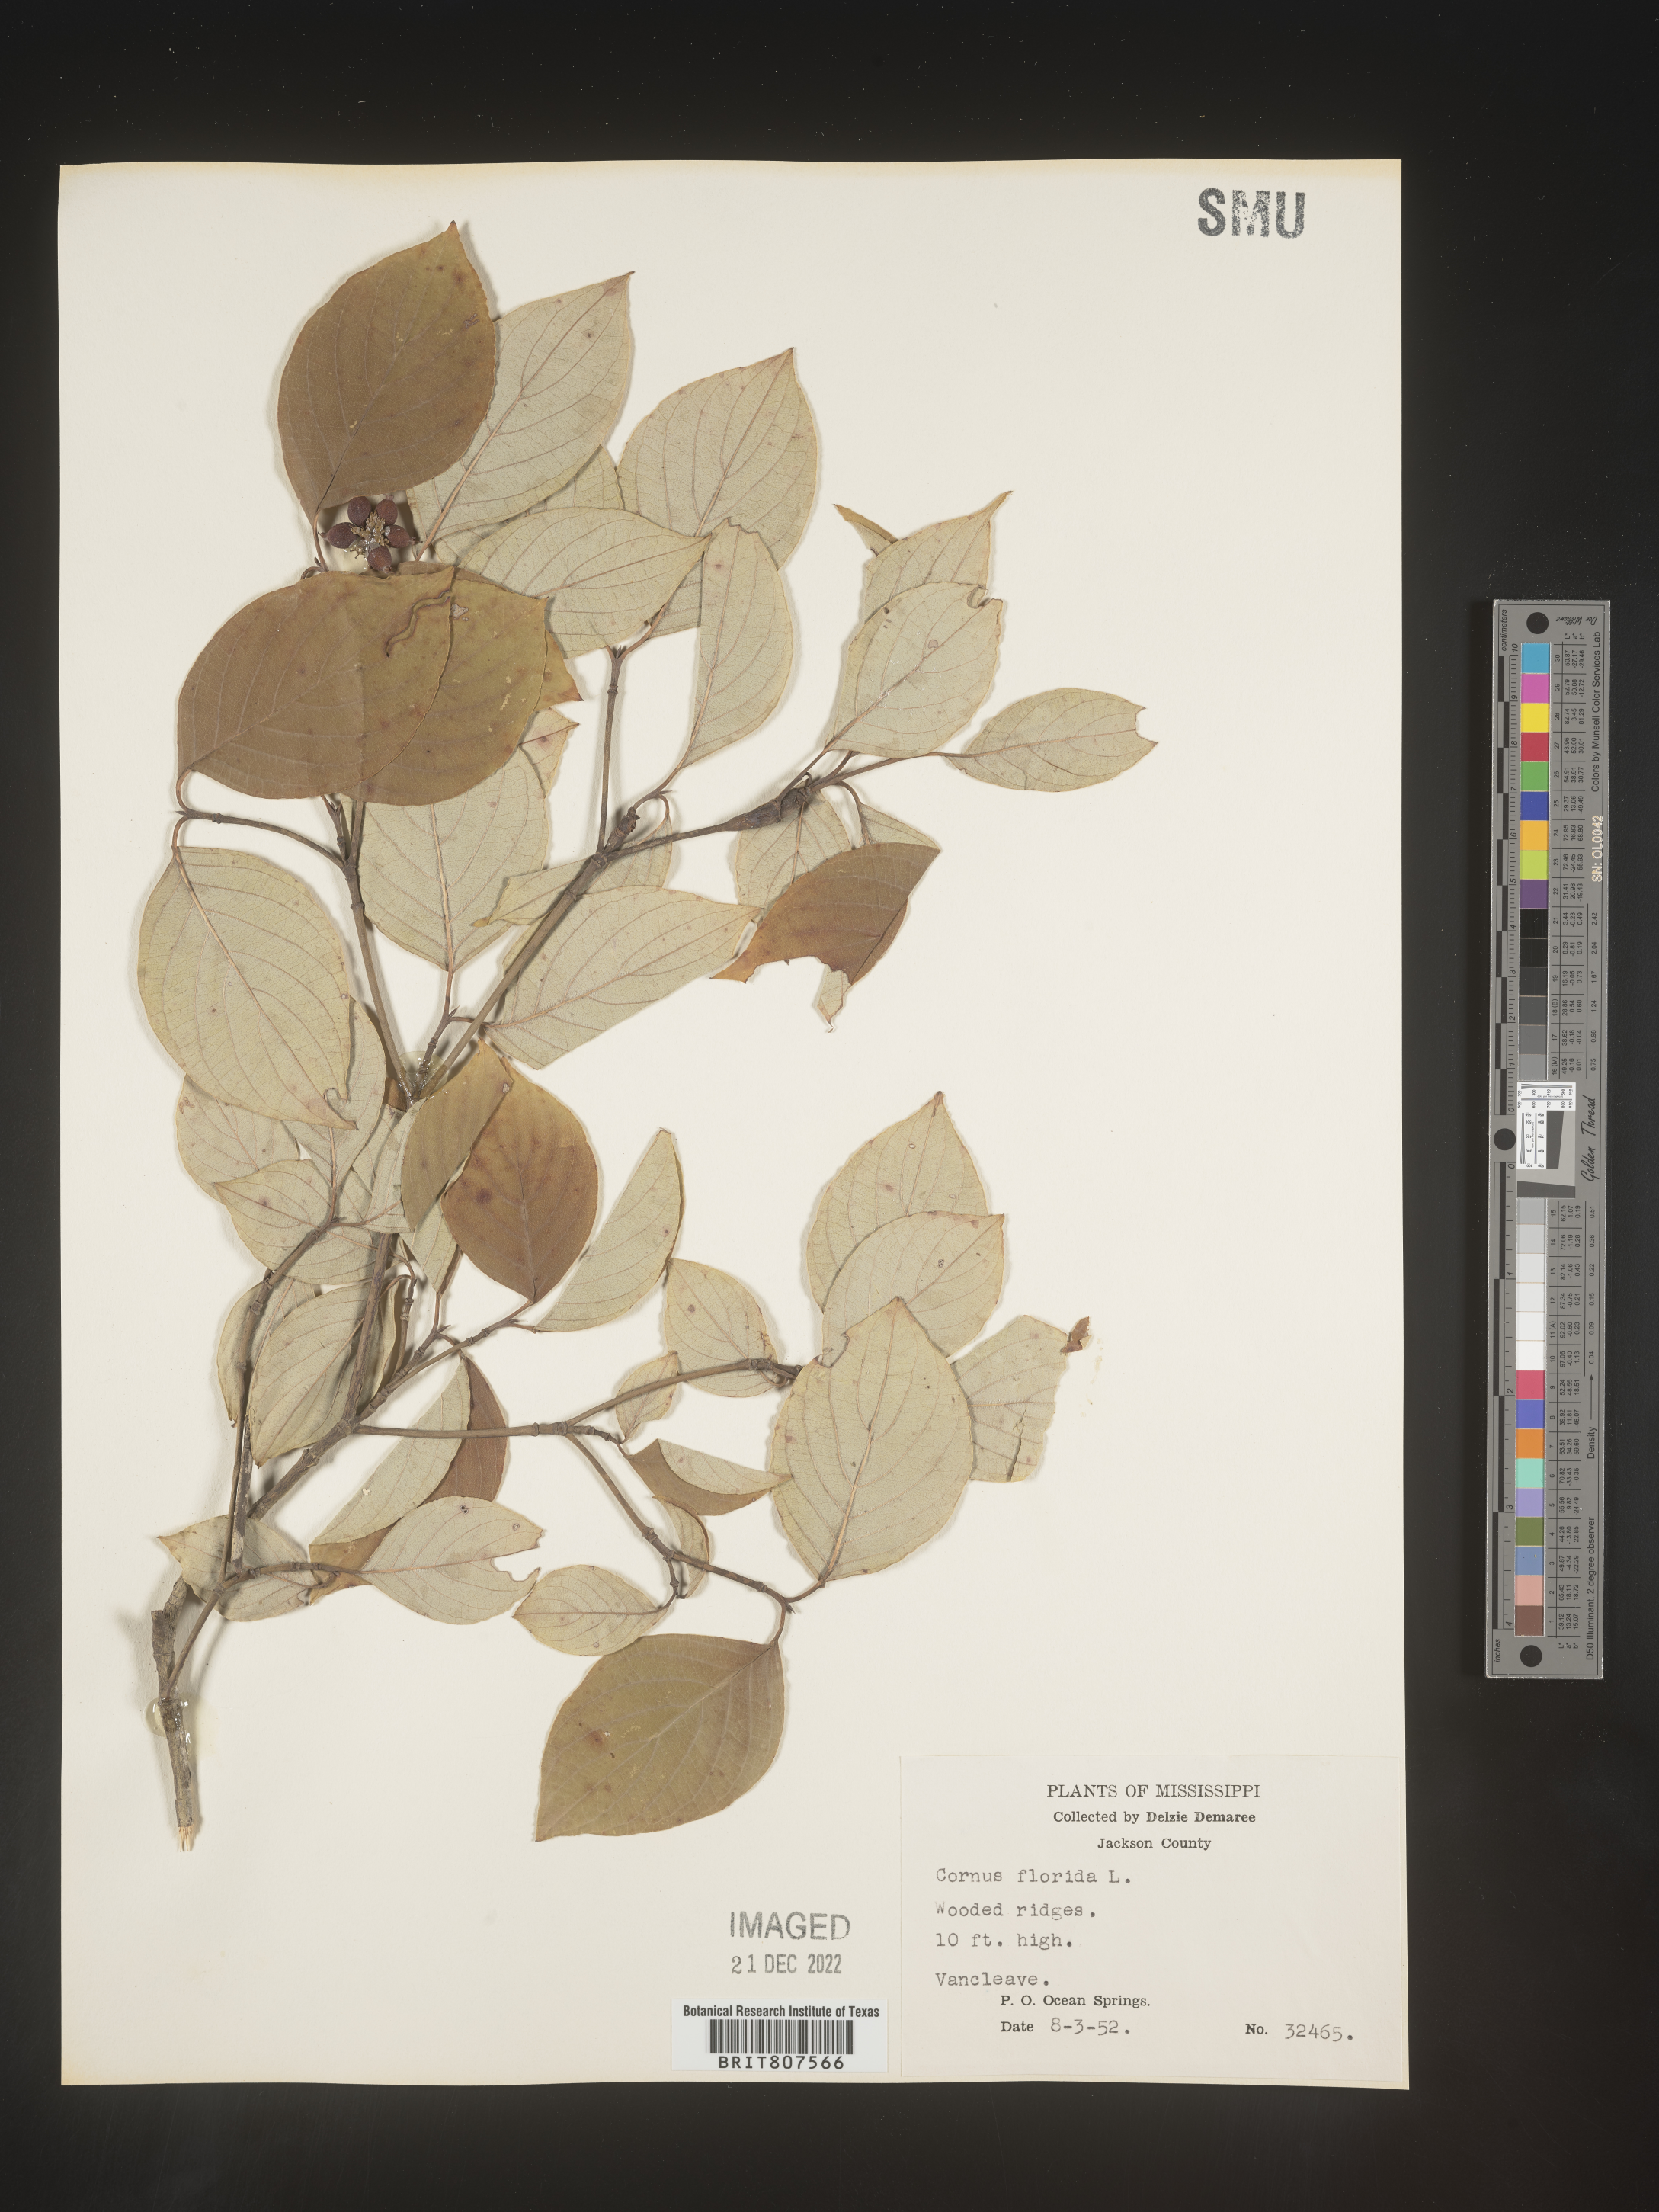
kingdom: Plantae
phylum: Tracheophyta
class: Magnoliopsida
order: Cornales
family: Cornaceae
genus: Cornus
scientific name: Cornus florida
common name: Flowering dogwood
